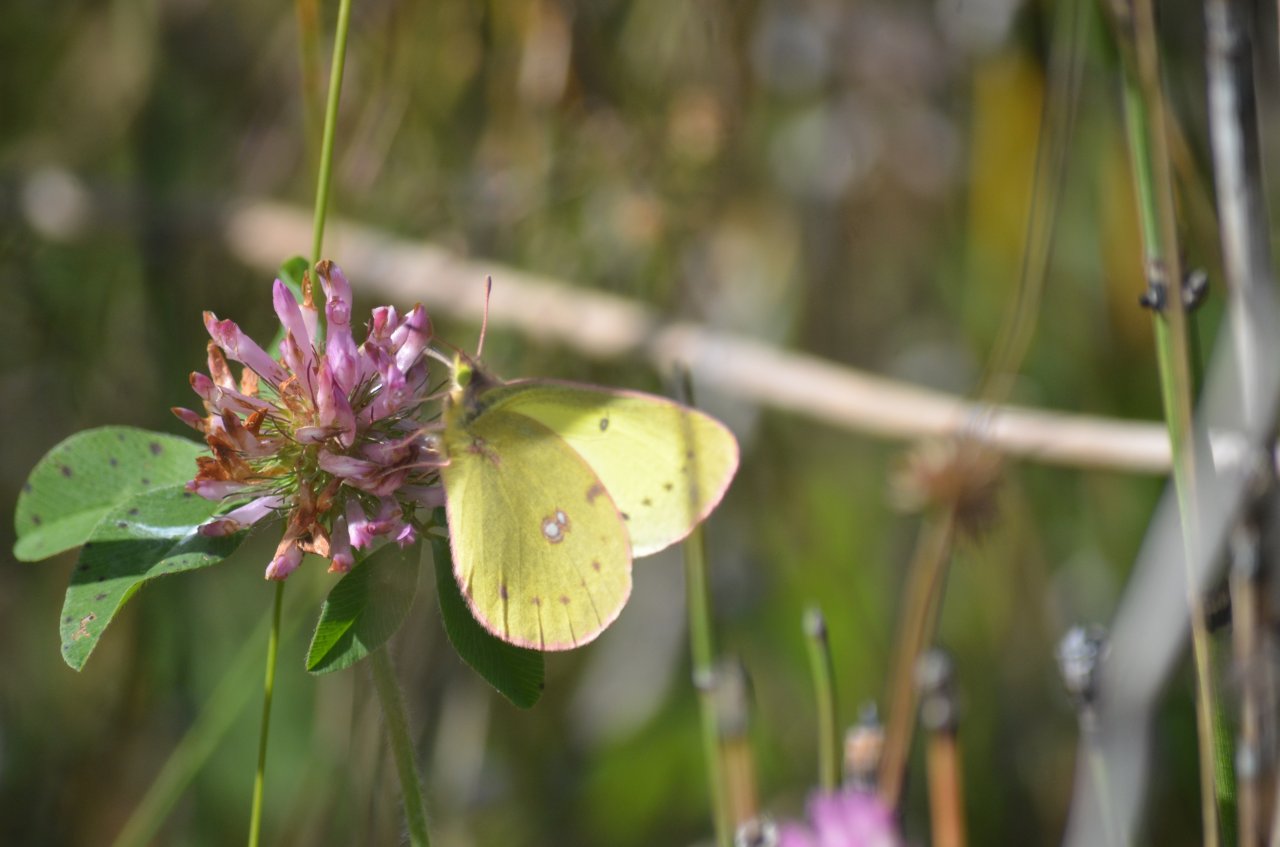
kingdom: Animalia
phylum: Arthropoda
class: Insecta
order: Lepidoptera
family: Pieridae
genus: Colias
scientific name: Colias philodice
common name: Clouded Sulphur
